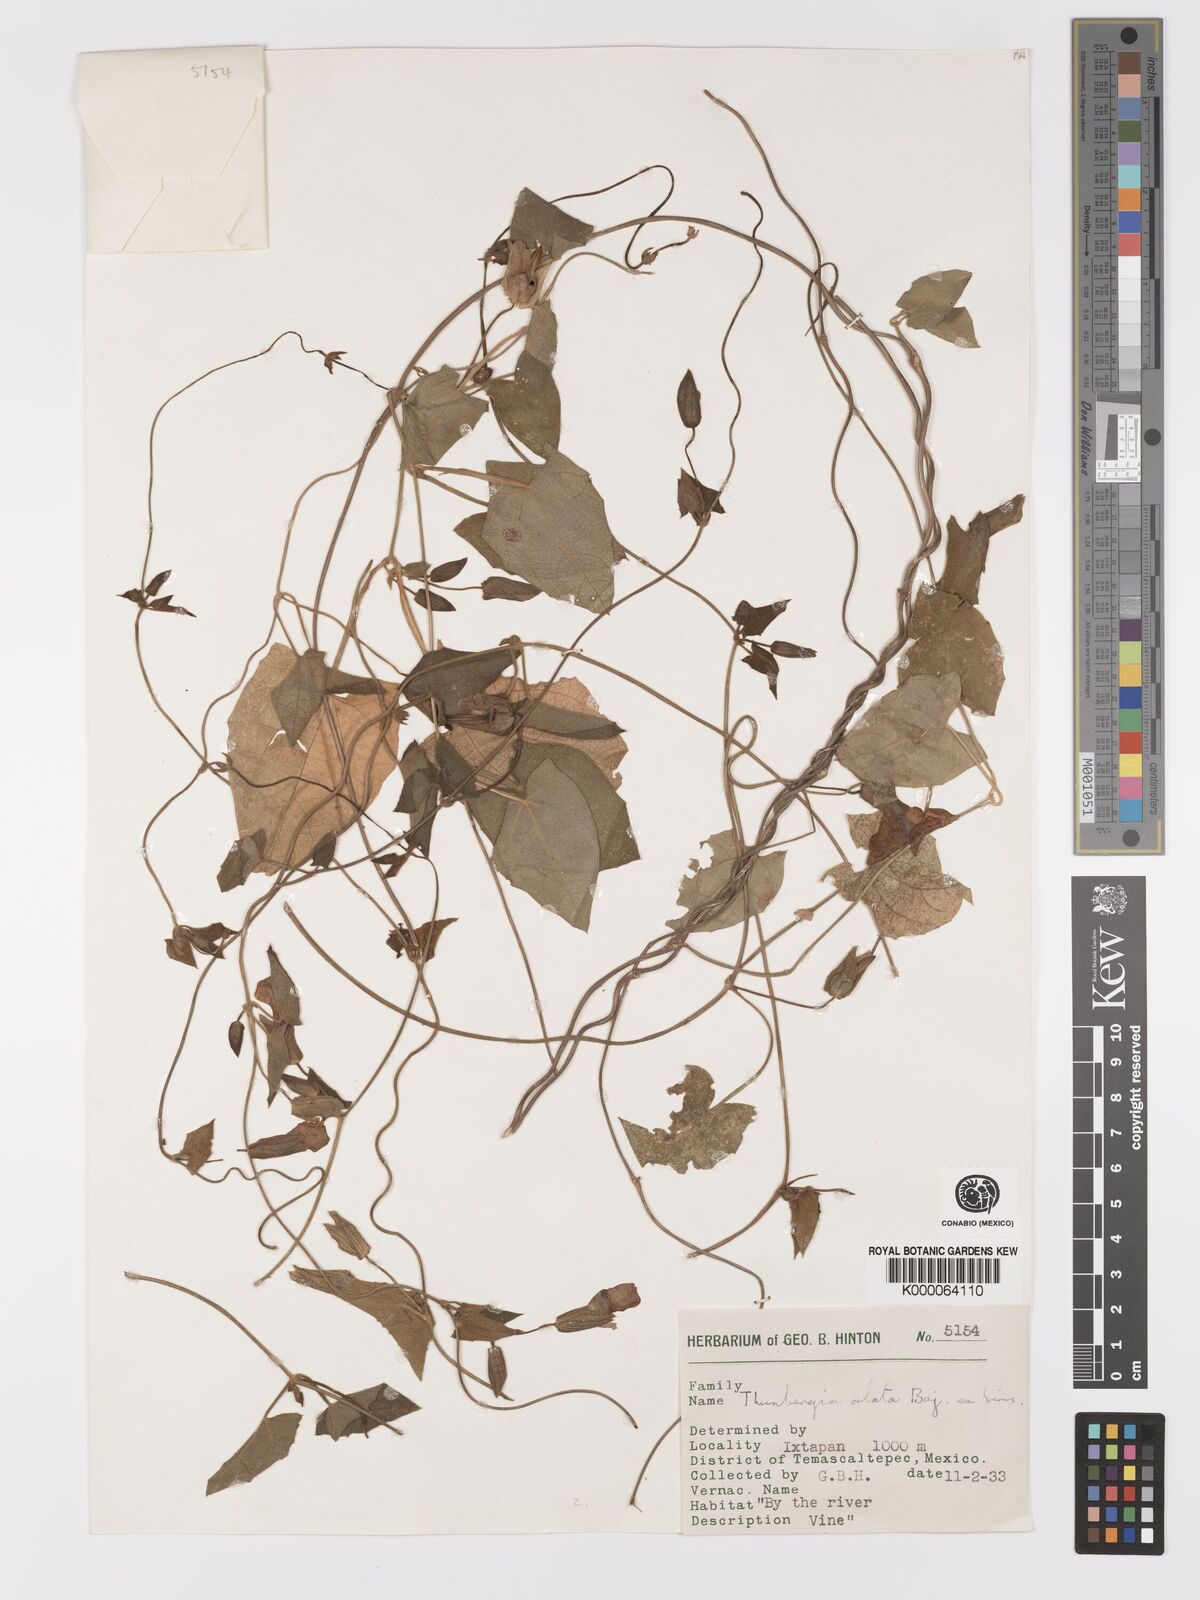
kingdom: Plantae
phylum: Tracheophyta
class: Magnoliopsida
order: Lamiales
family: Acanthaceae
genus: Thunbergia
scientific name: Thunbergia alata
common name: Blackeyed susan vine
